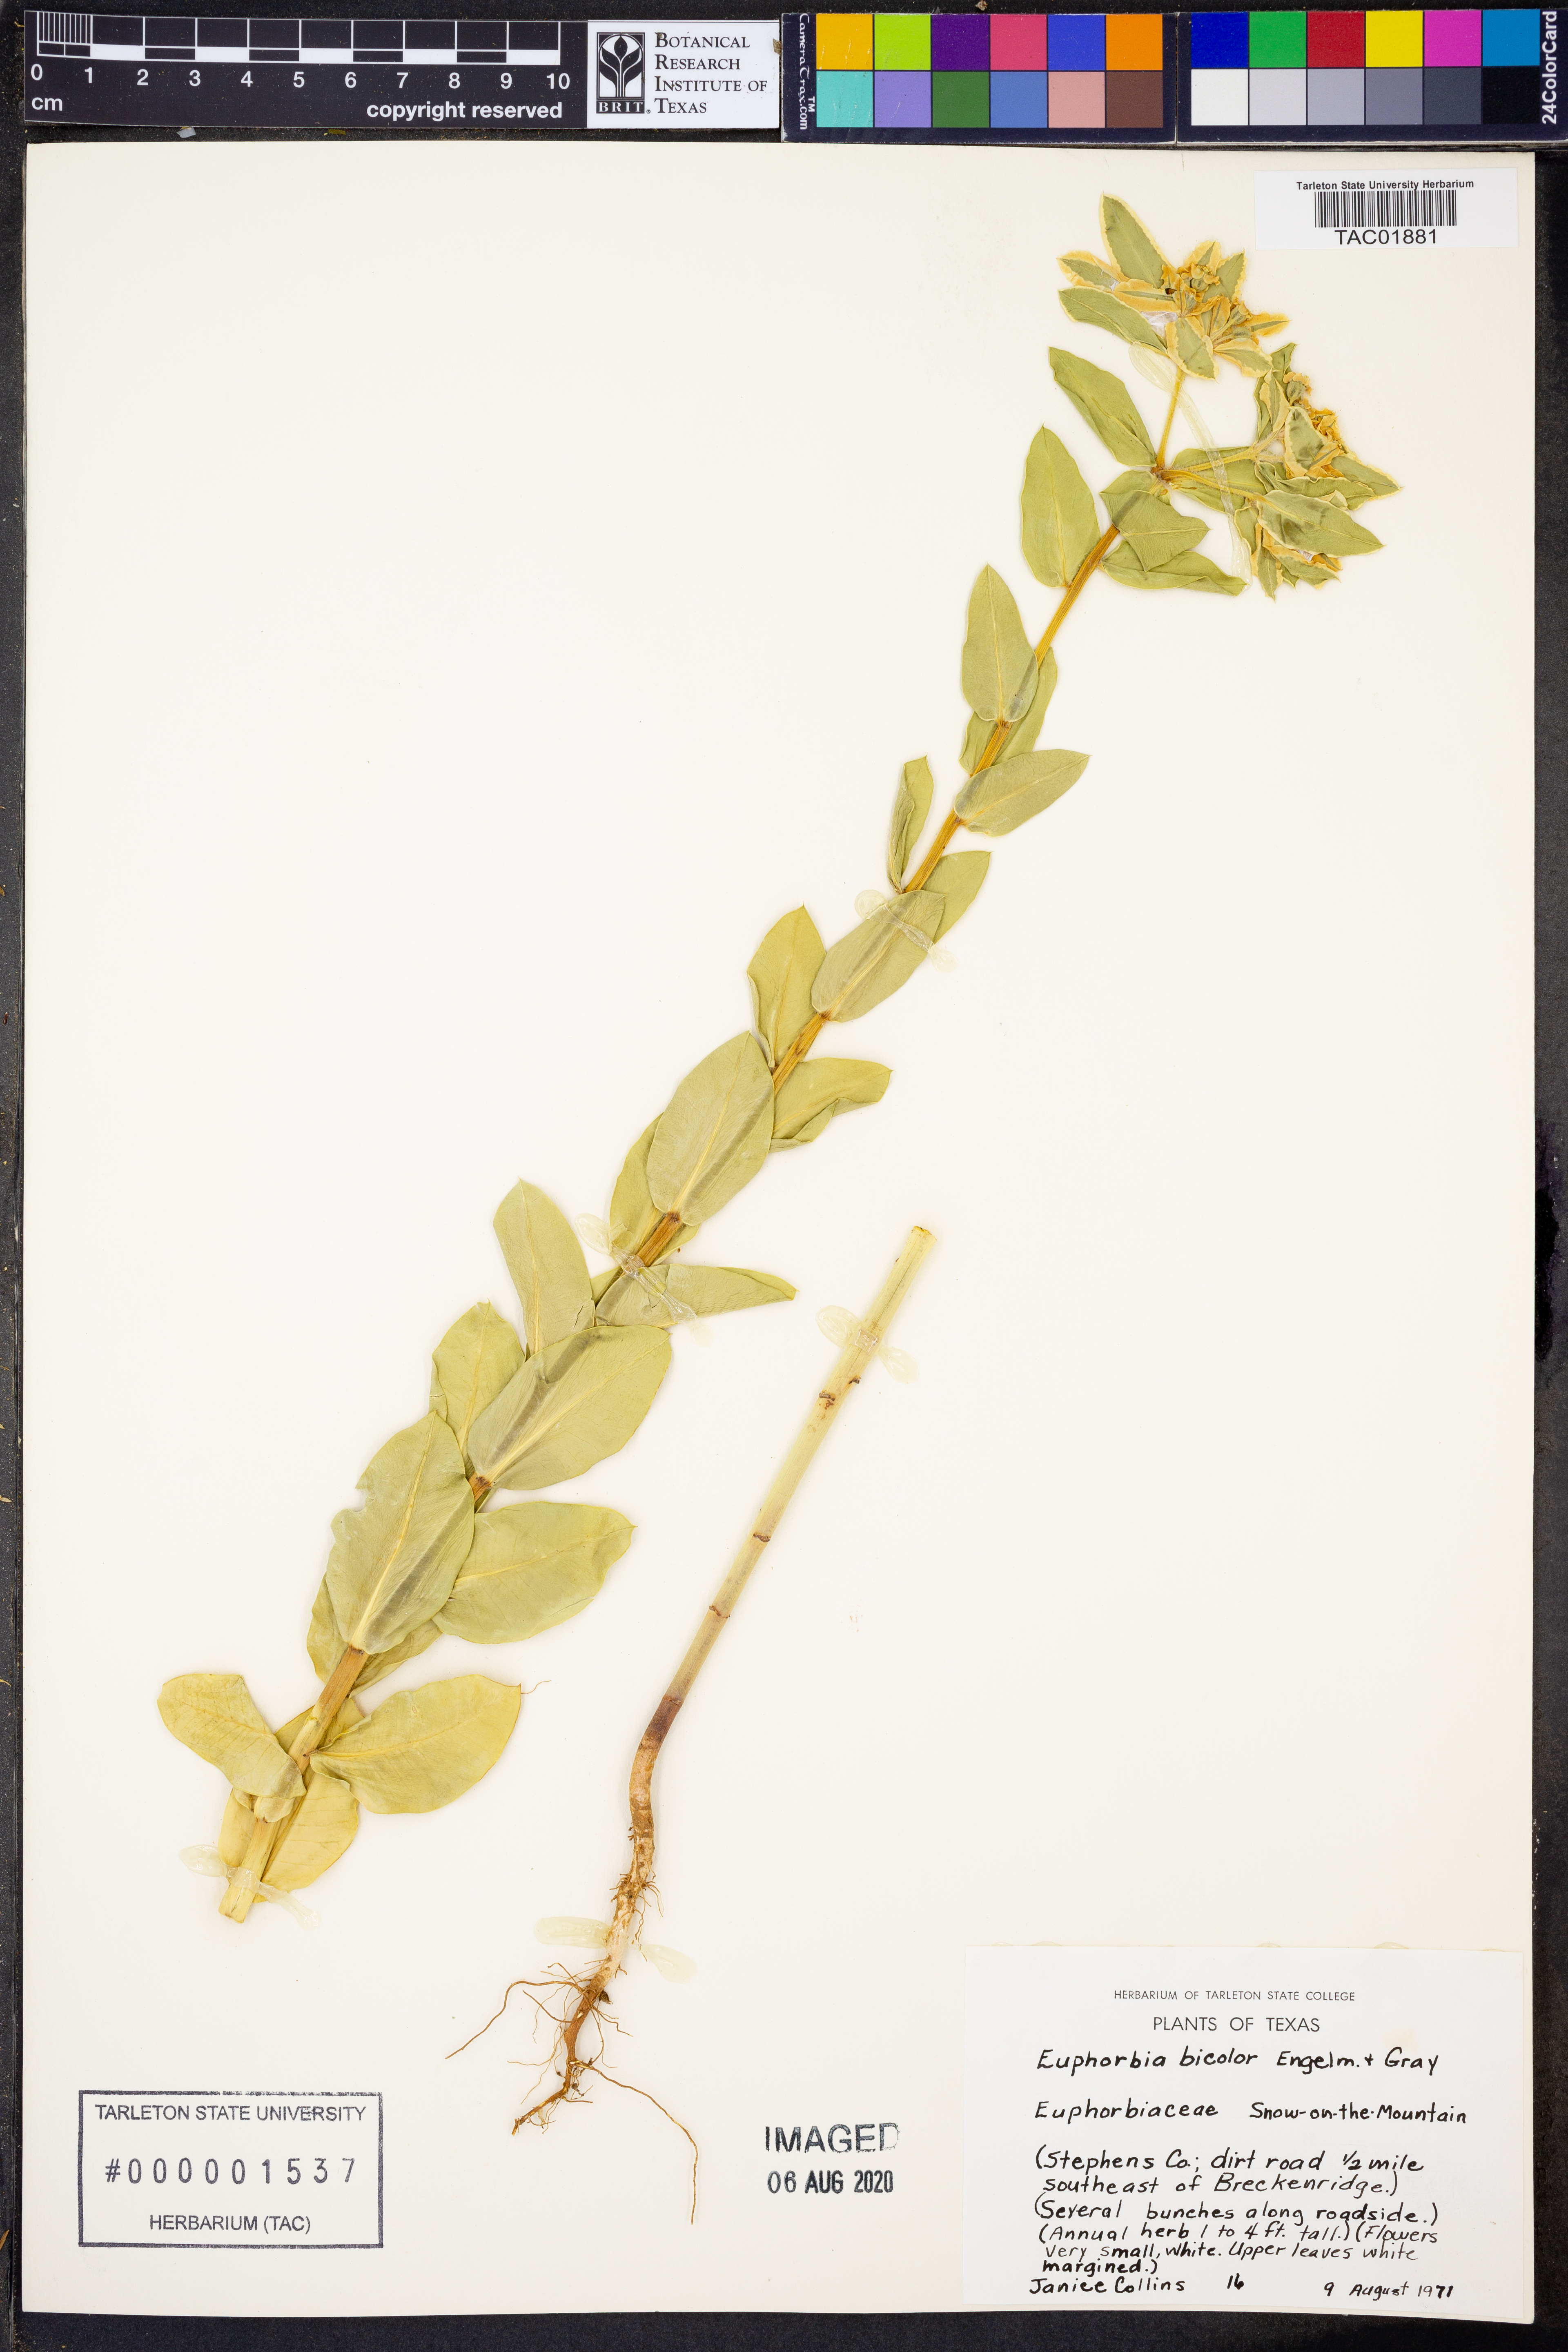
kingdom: Plantae
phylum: Tracheophyta
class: Magnoliopsida
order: Malpighiales
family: Euphorbiaceae
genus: Euphorbia
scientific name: Euphorbia bicolor
